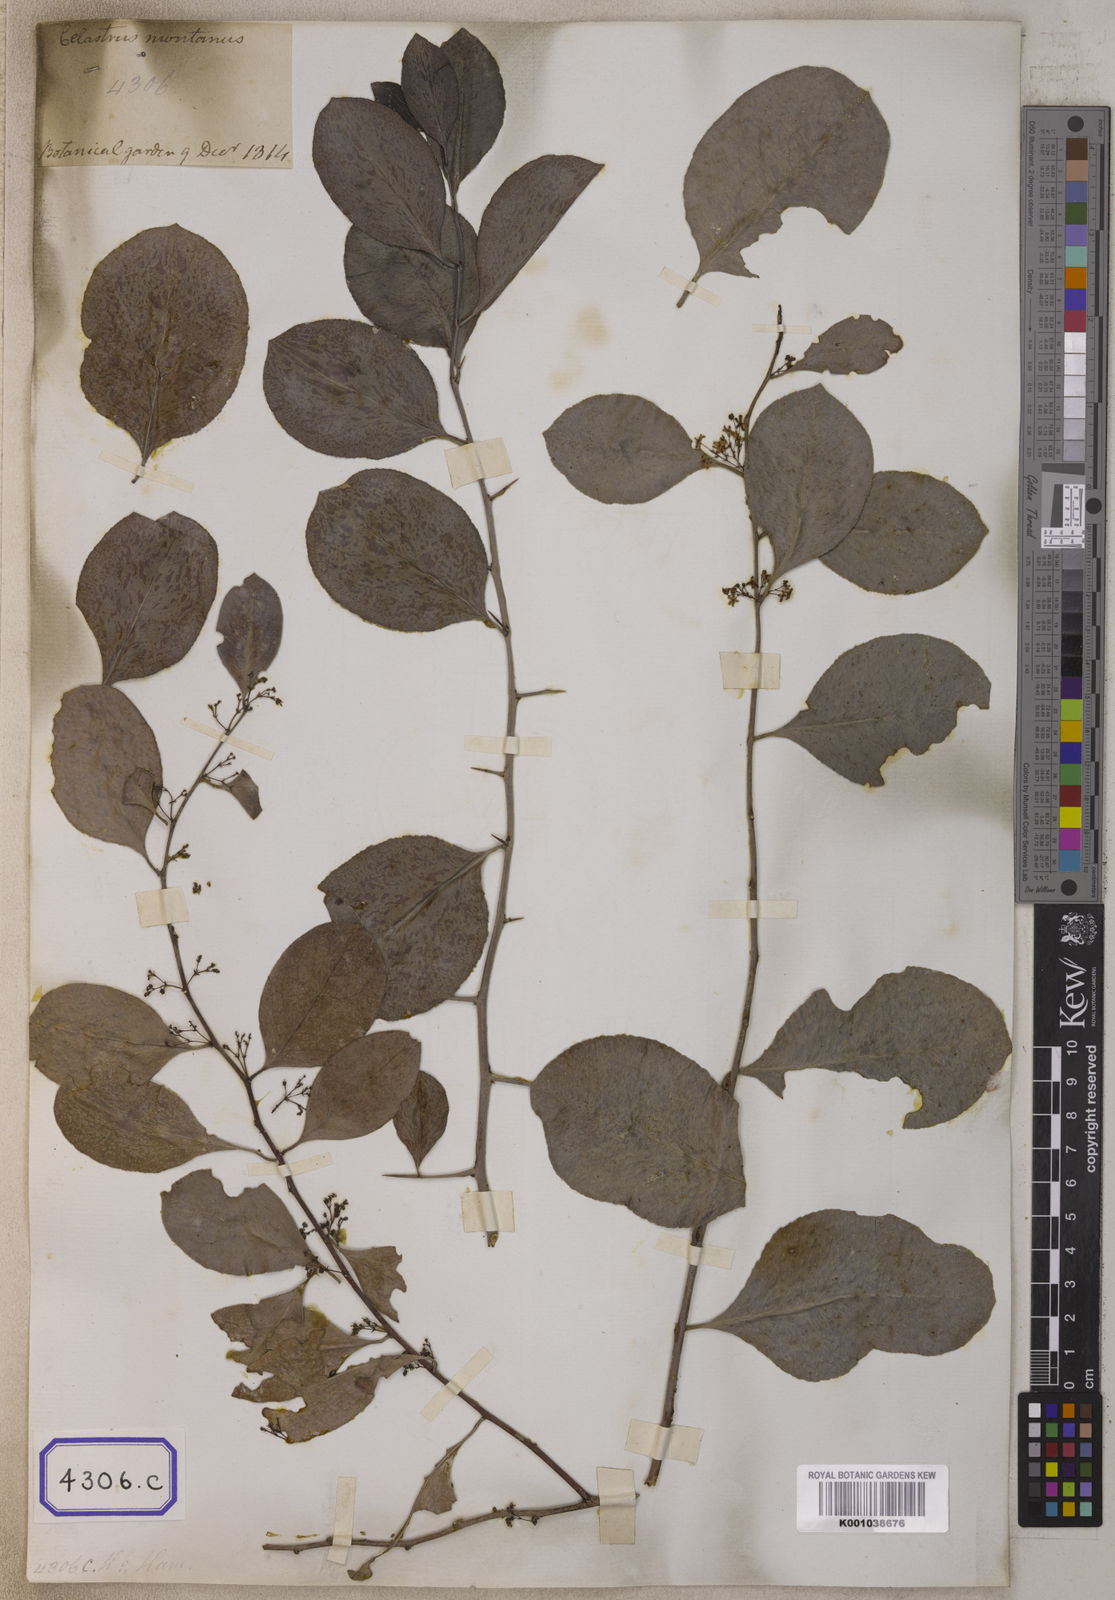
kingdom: Plantae
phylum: Tracheophyta
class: Magnoliopsida
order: Celastrales
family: Celastraceae
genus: Celastrus
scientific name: Celastrus
